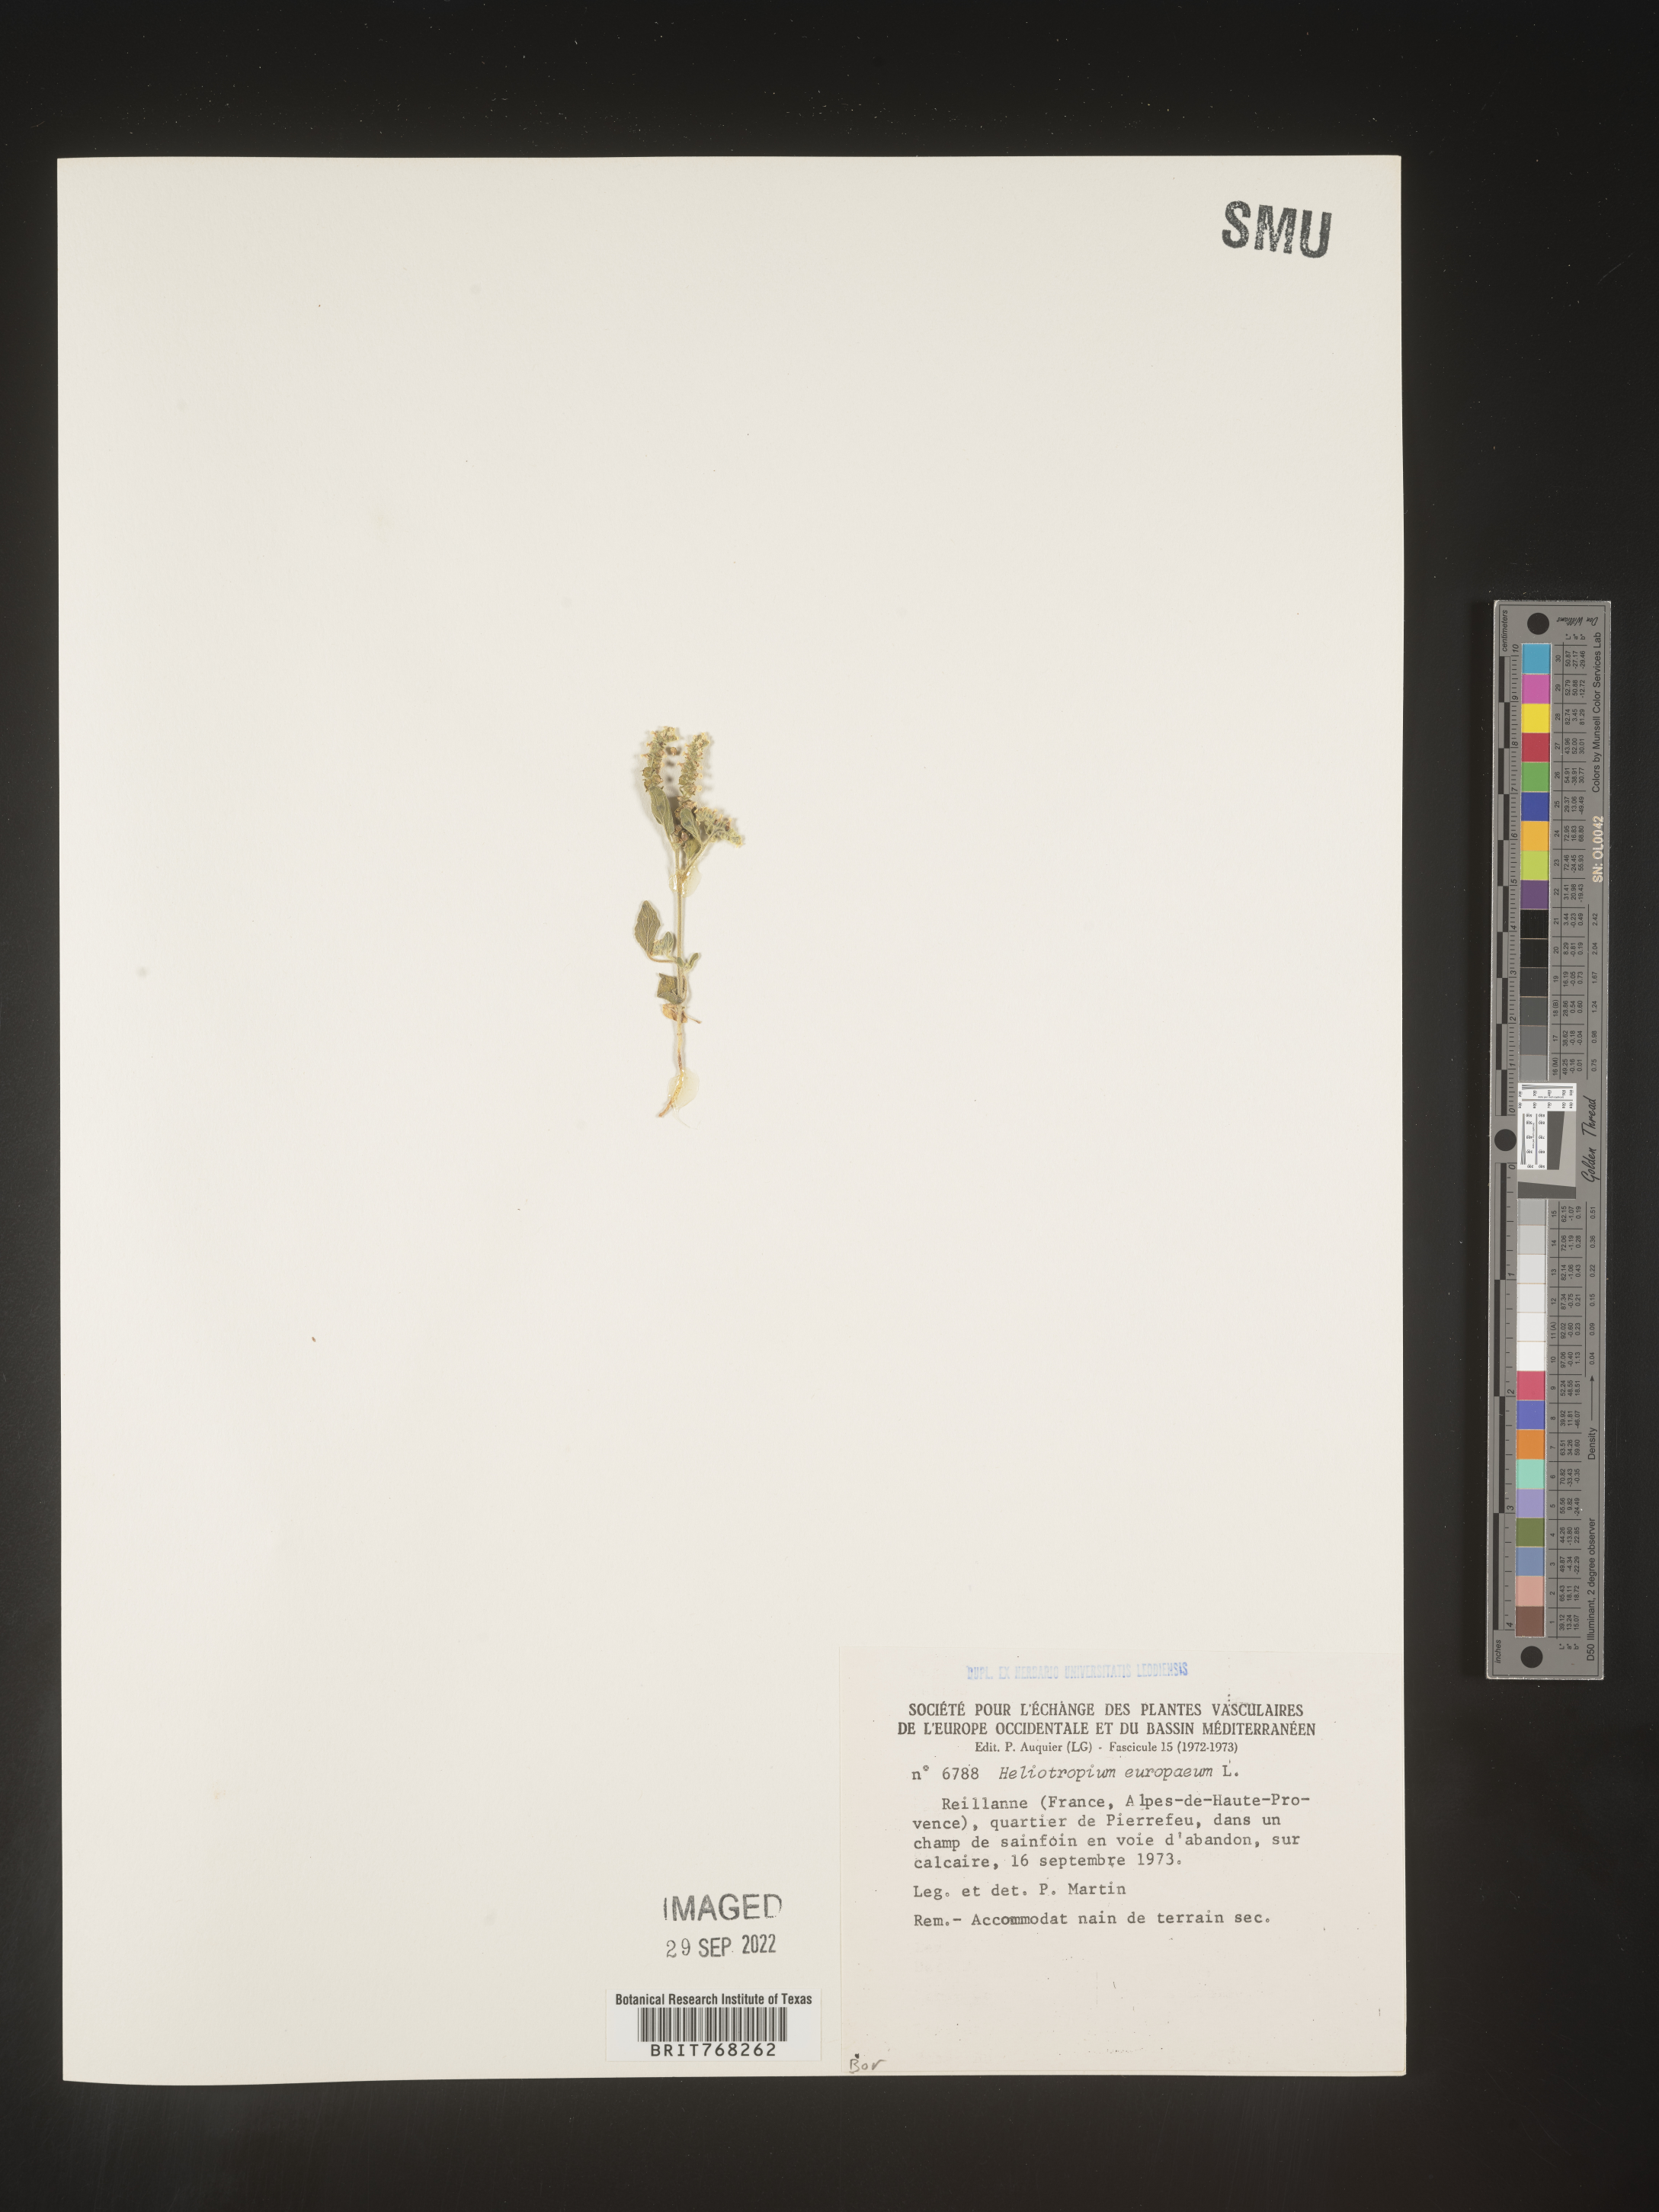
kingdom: Plantae
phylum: Tracheophyta
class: Magnoliopsida
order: Boraginales
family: Heliotropiaceae
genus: Heliotropium
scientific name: Heliotropium
